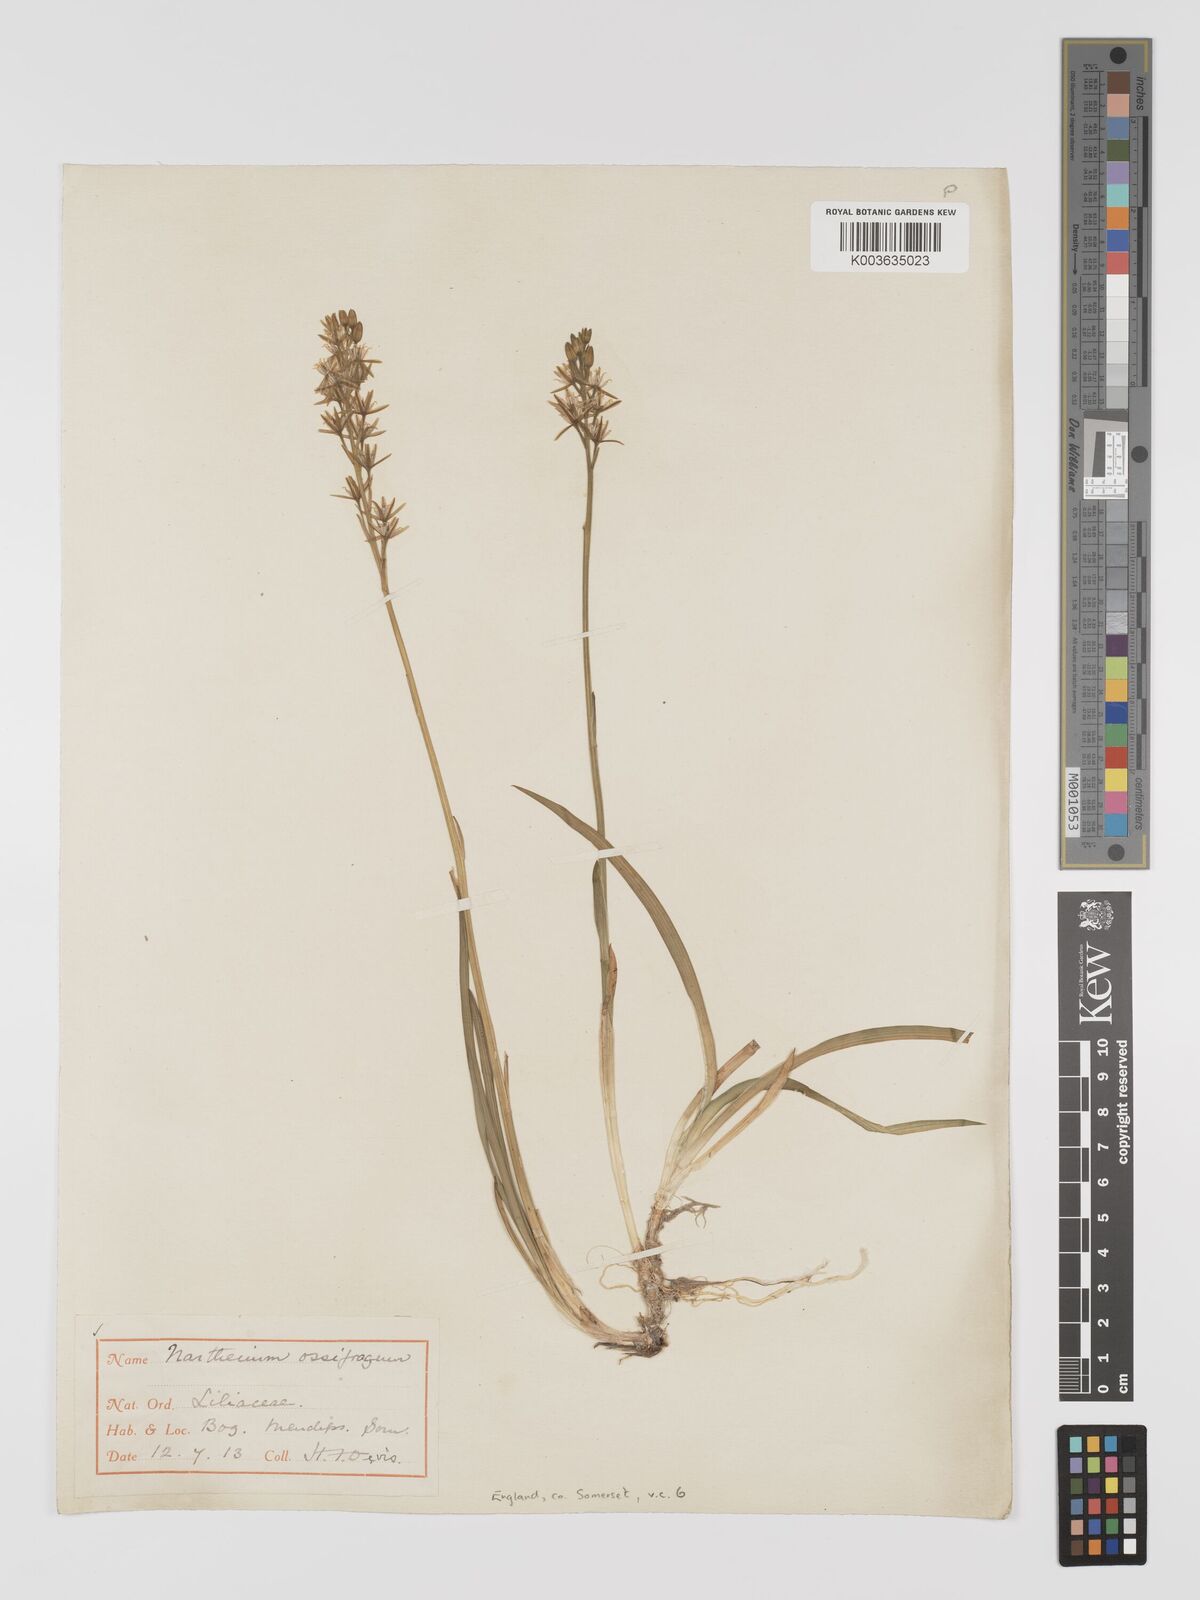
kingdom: Plantae
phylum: Tracheophyta
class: Liliopsida
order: Dioscoreales
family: Nartheciaceae
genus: Narthecium
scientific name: Narthecium ossifragum
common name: Bog asphodel
